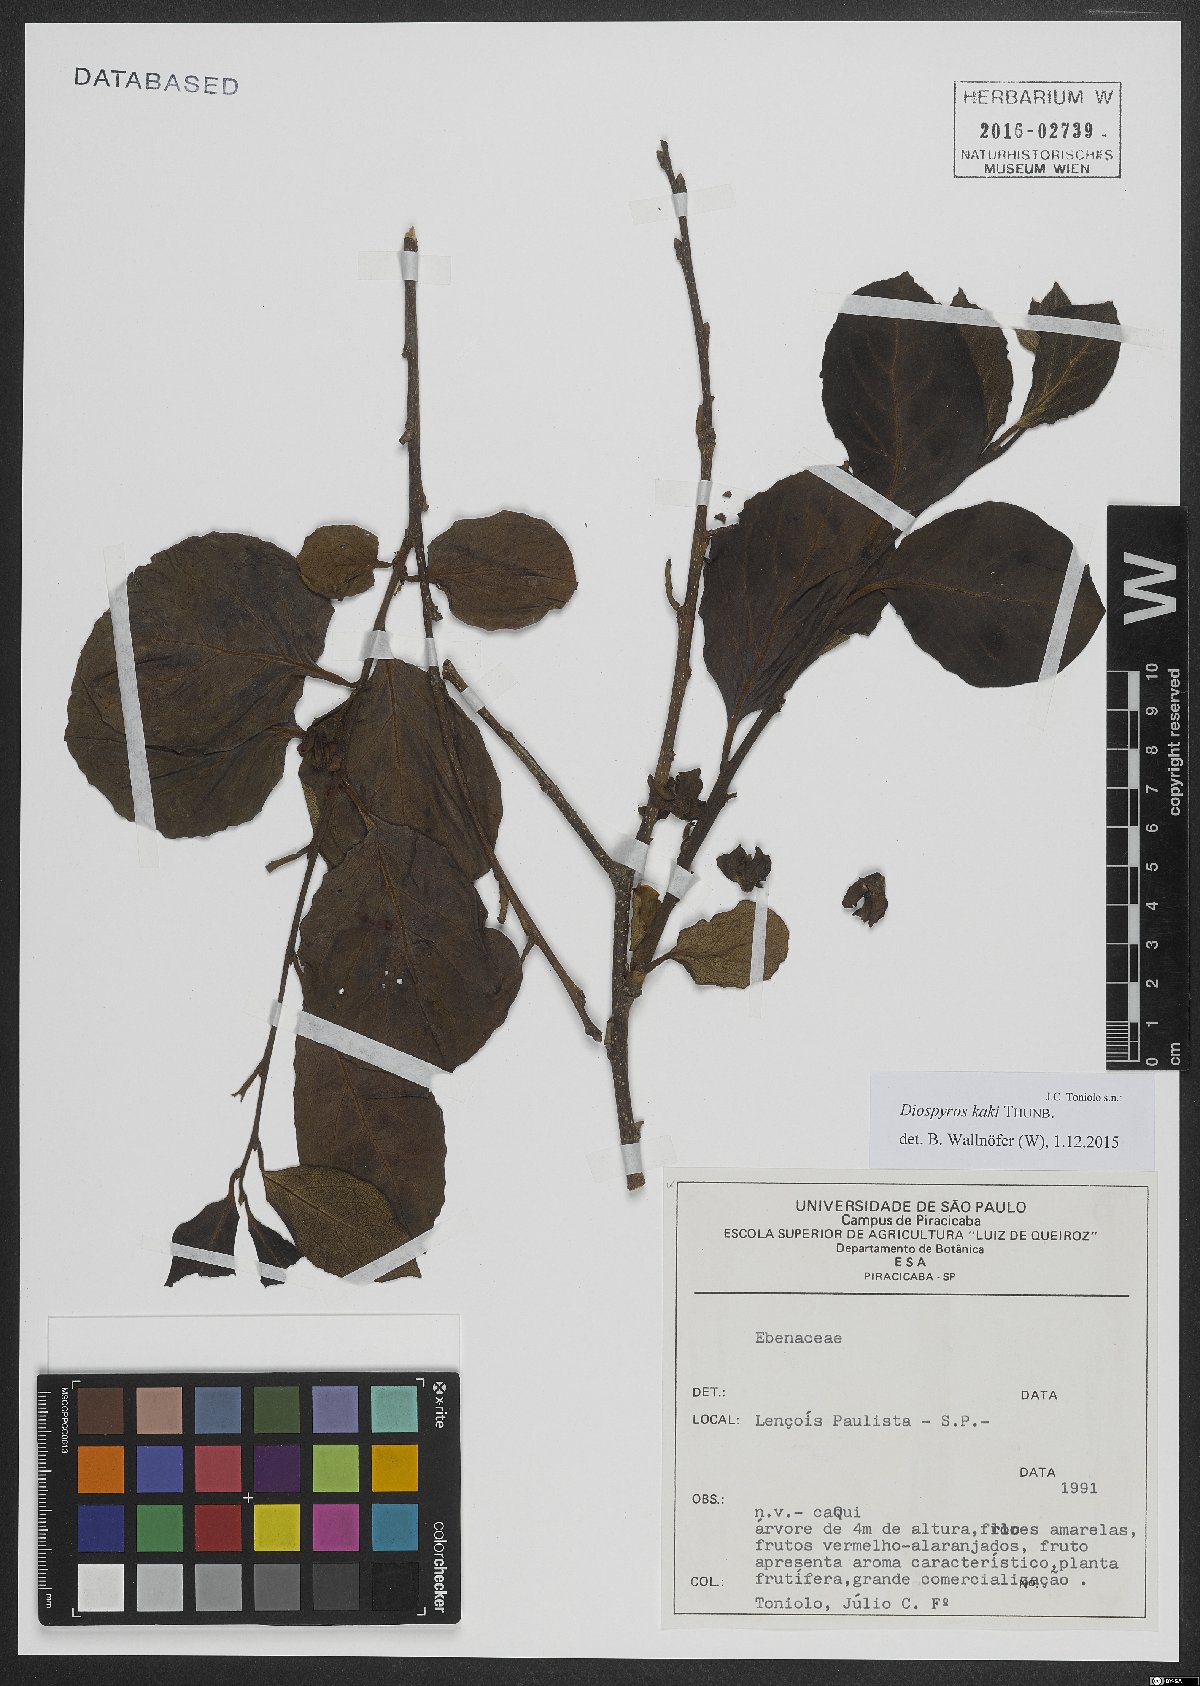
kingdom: Plantae
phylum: Tracheophyta
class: Magnoliopsida
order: Ericales
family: Ebenaceae
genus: Diospyros
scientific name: Diospyros kaki
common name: Persimmon
